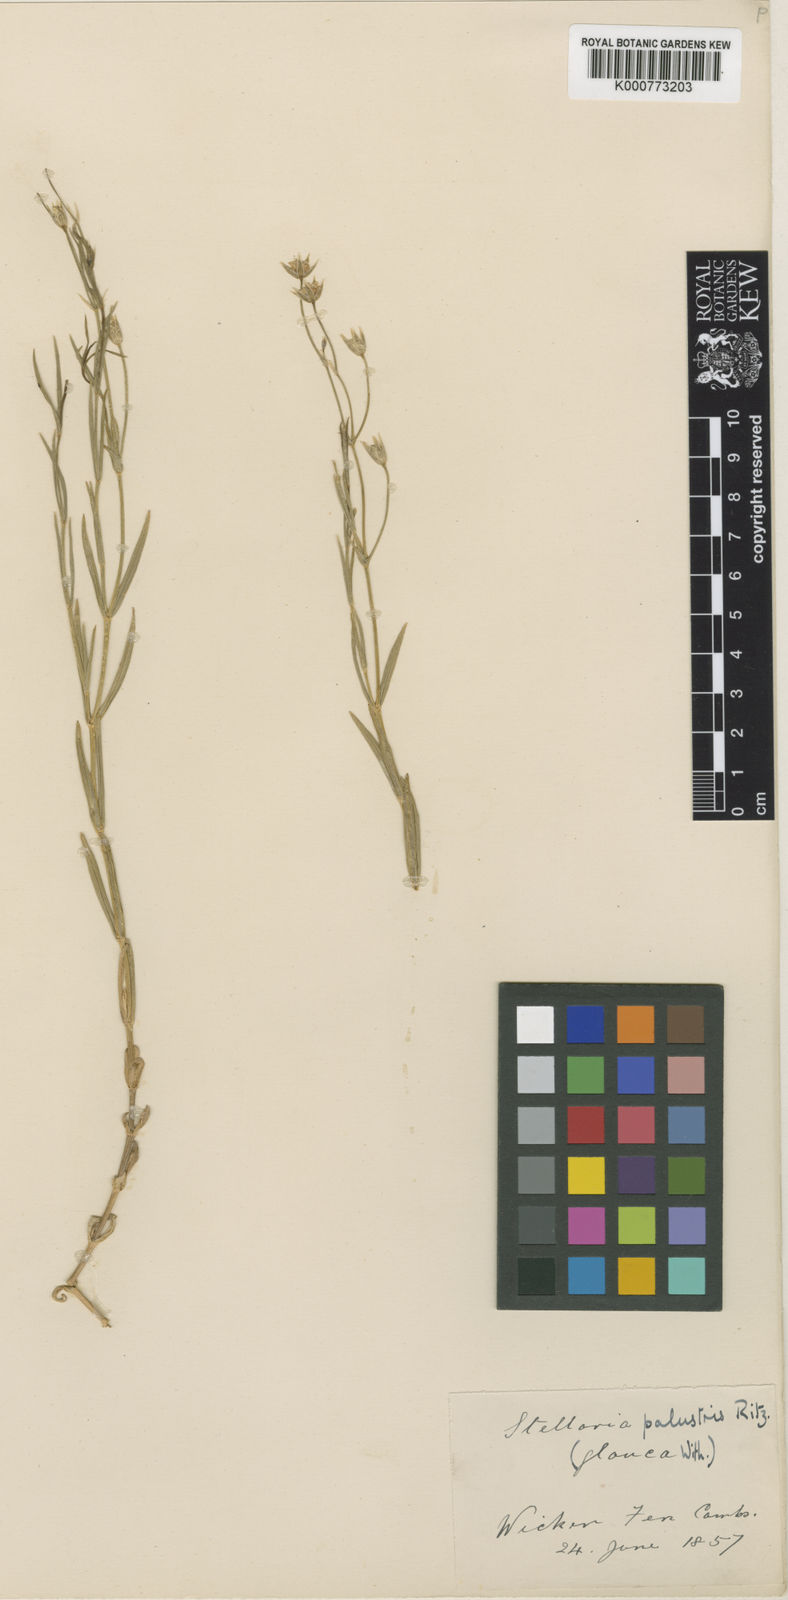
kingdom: Plantae
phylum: Tracheophyta
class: Magnoliopsida
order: Caryophyllales
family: Caryophyllaceae
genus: Stellaria
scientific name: Stellaria
